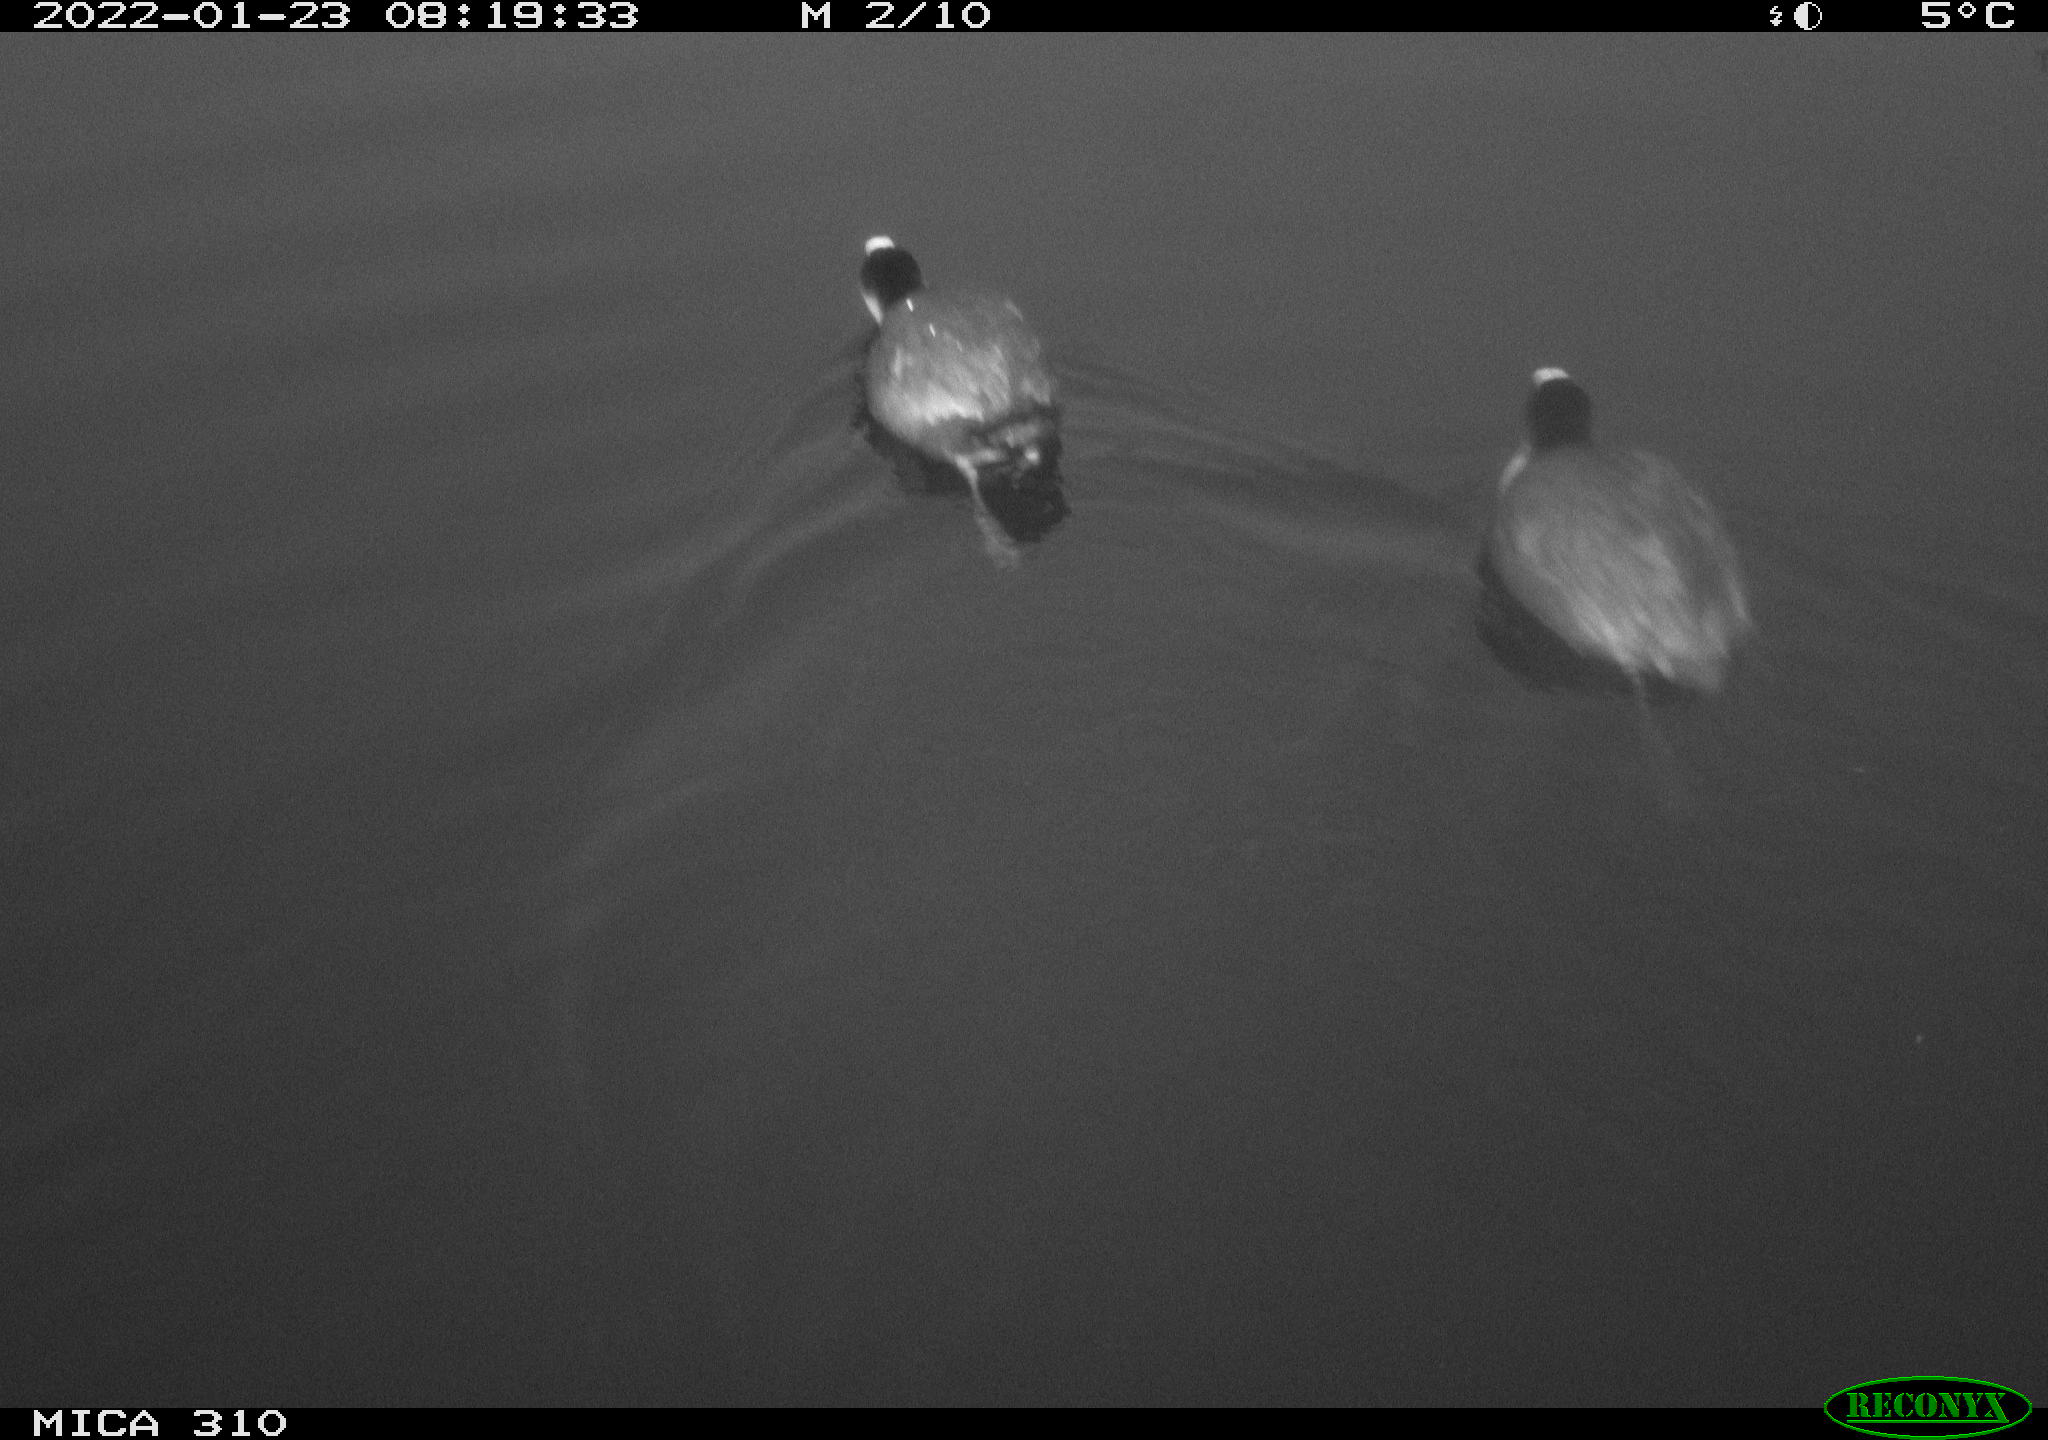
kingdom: Animalia
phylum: Chordata
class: Aves
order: Gruiformes
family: Rallidae
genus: Fulica
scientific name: Fulica atra
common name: Eurasian coot
